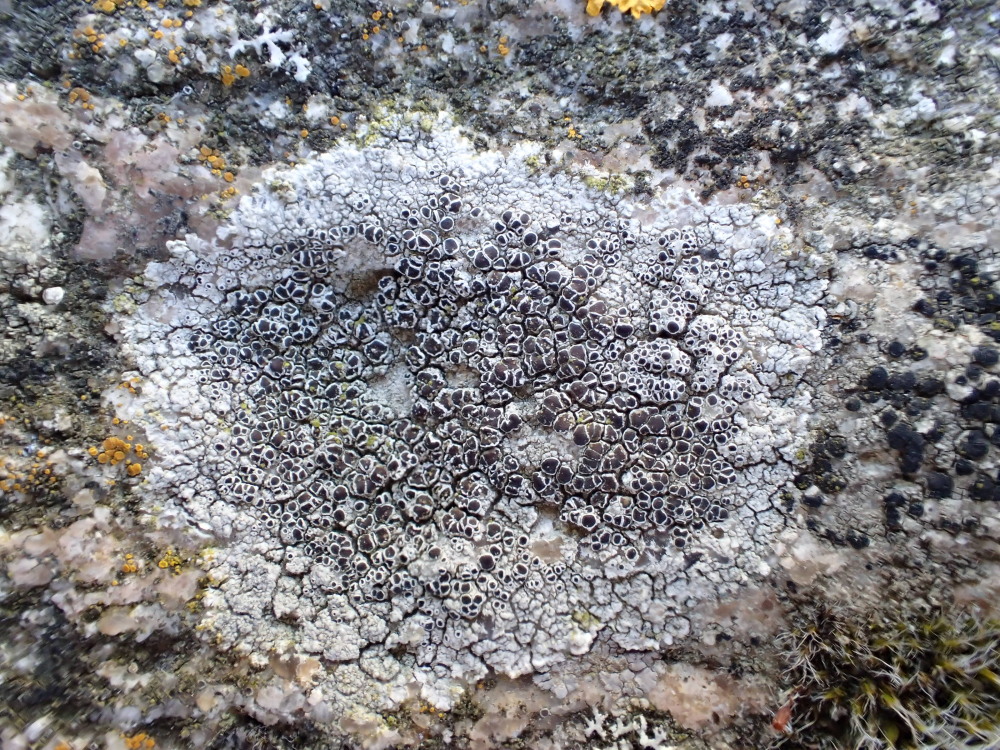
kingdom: Fungi
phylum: Ascomycota
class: Lecanoromycetes
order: Lecanorales
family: Lecanoraceae
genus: Lecanora
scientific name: Lecanora campestris
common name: mur-kantskivelav
